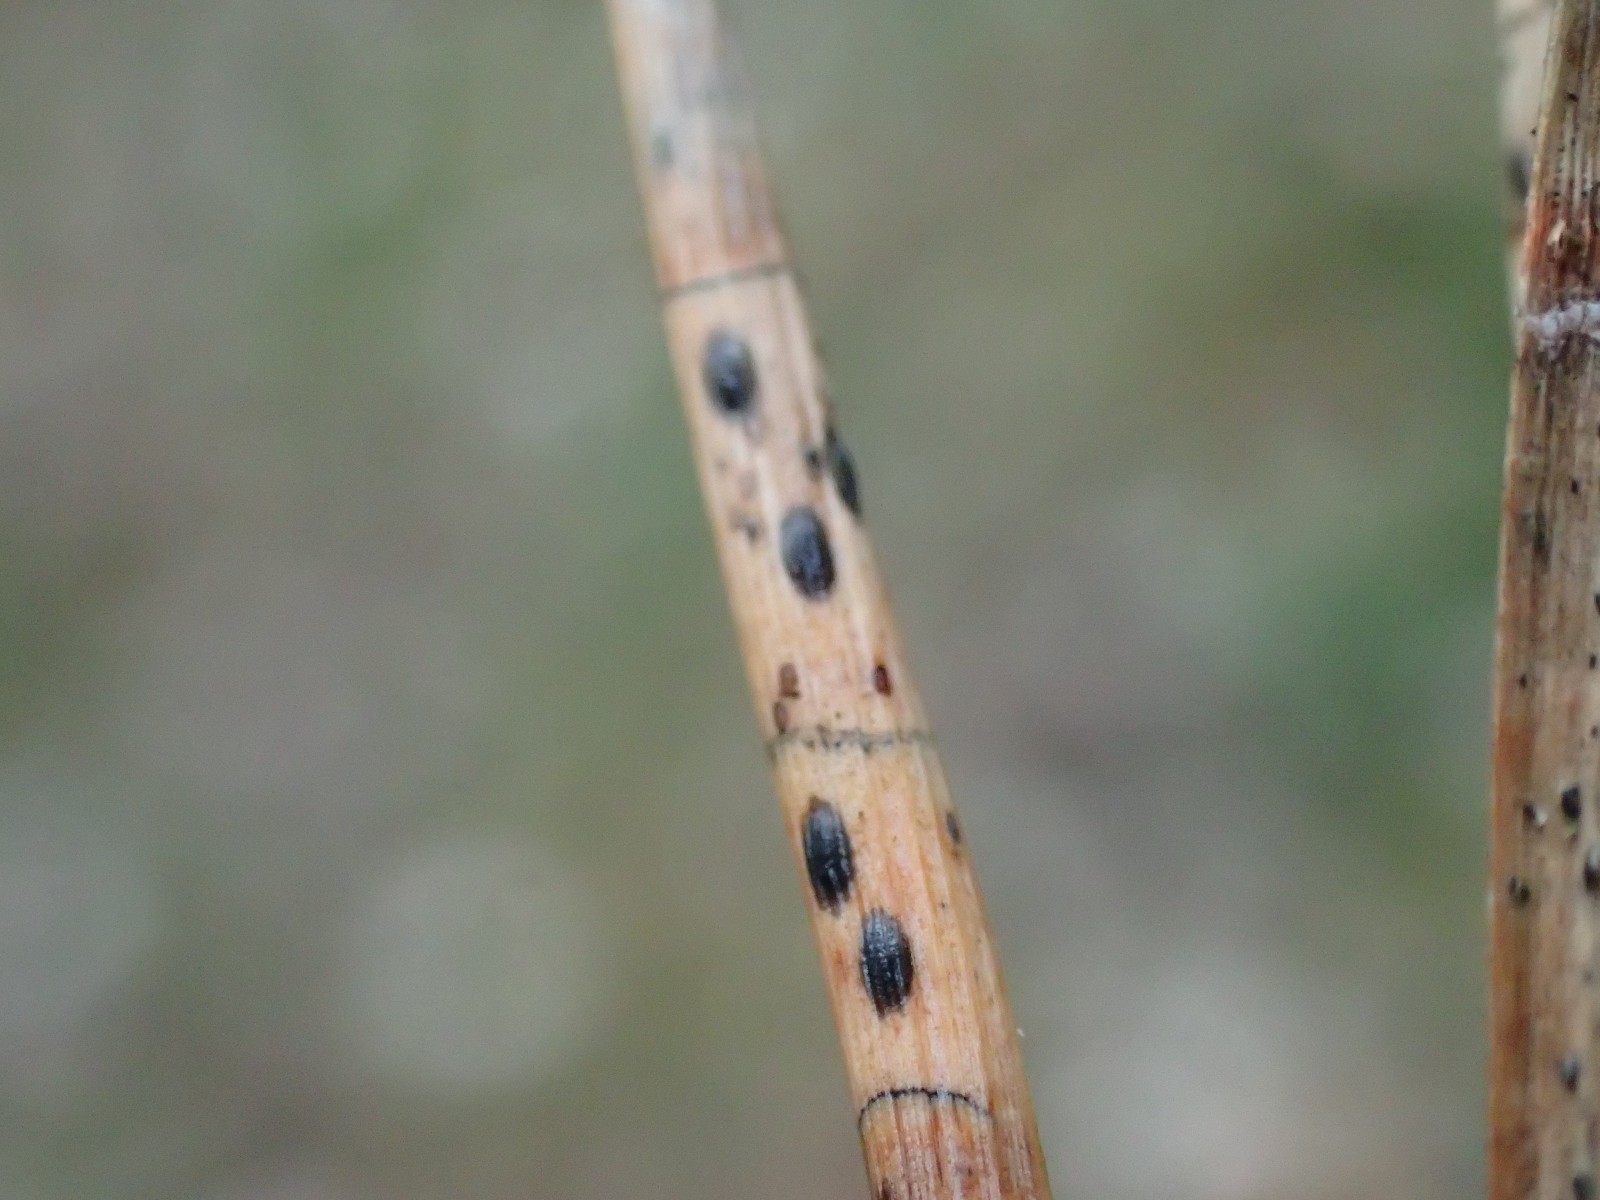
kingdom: Fungi
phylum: Ascomycota
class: Leotiomycetes
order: Rhytismatales
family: Rhytismataceae
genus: Lophodermium
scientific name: Lophodermium pinastri
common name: fyrre-fureplet
